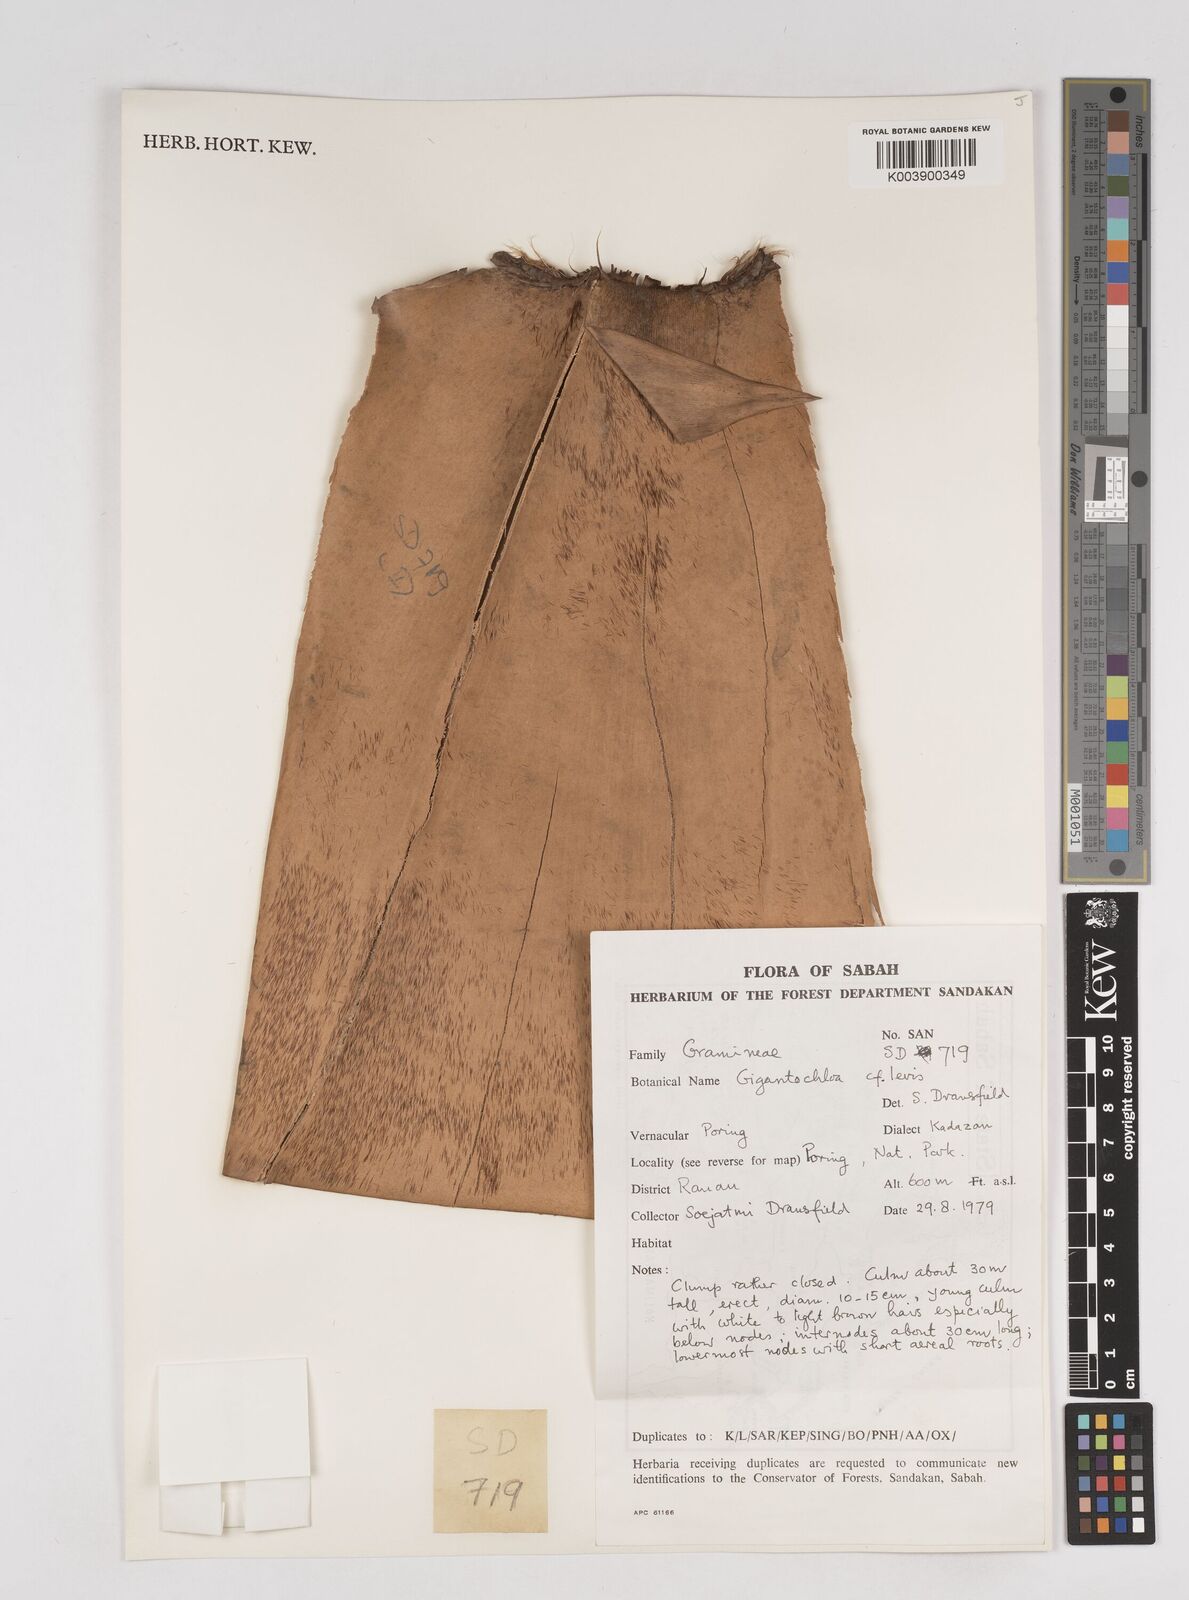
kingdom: Plantae
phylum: Tracheophyta
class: Liliopsida
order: Poales
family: Poaceae
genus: Gigantochloa
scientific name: Gigantochloa levis
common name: Smooth-shoot gigantochloa
